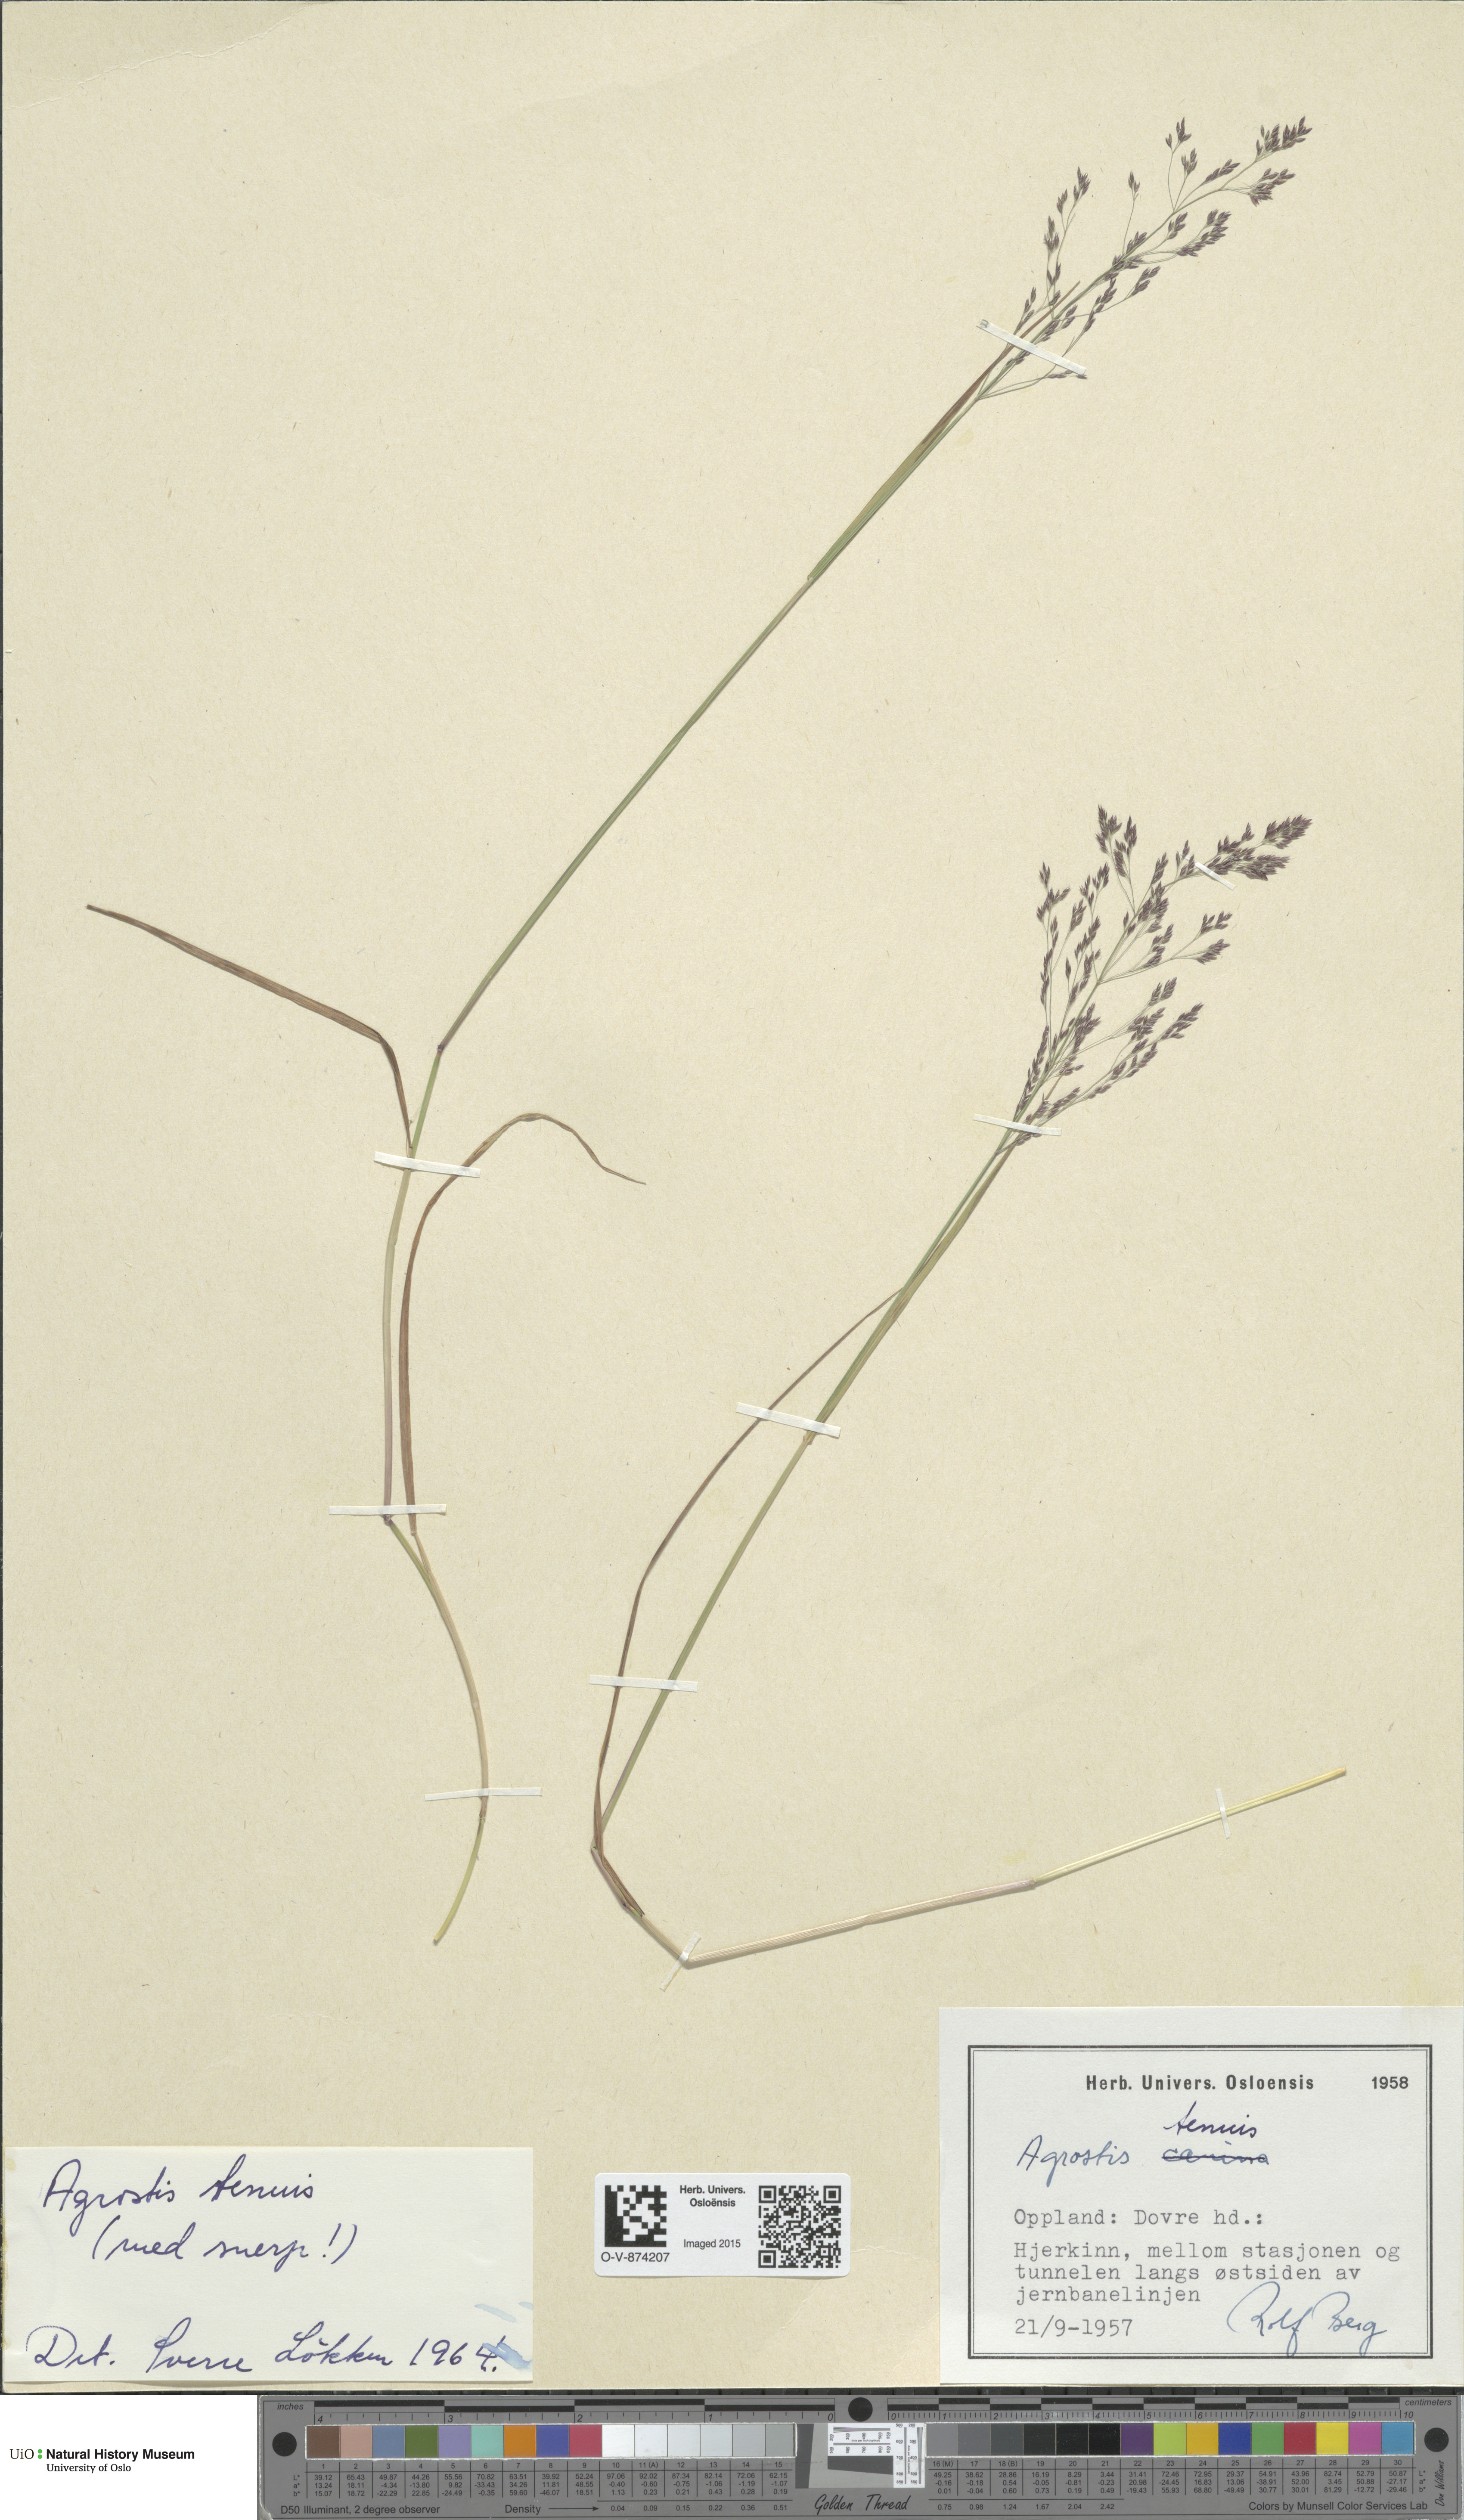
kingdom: Plantae
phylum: Tracheophyta
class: Liliopsida
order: Poales
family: Poaceae
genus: Agrostis
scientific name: Agrostis capillaris
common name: Colonial bentgrass
